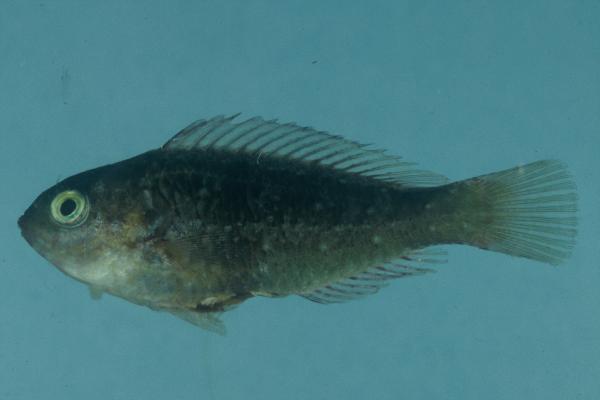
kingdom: Animalia
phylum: Chordata
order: Perciformes
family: Scaridae
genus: Calotomus
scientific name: Calotomus spinidens
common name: Raggedtooth parrotfish
